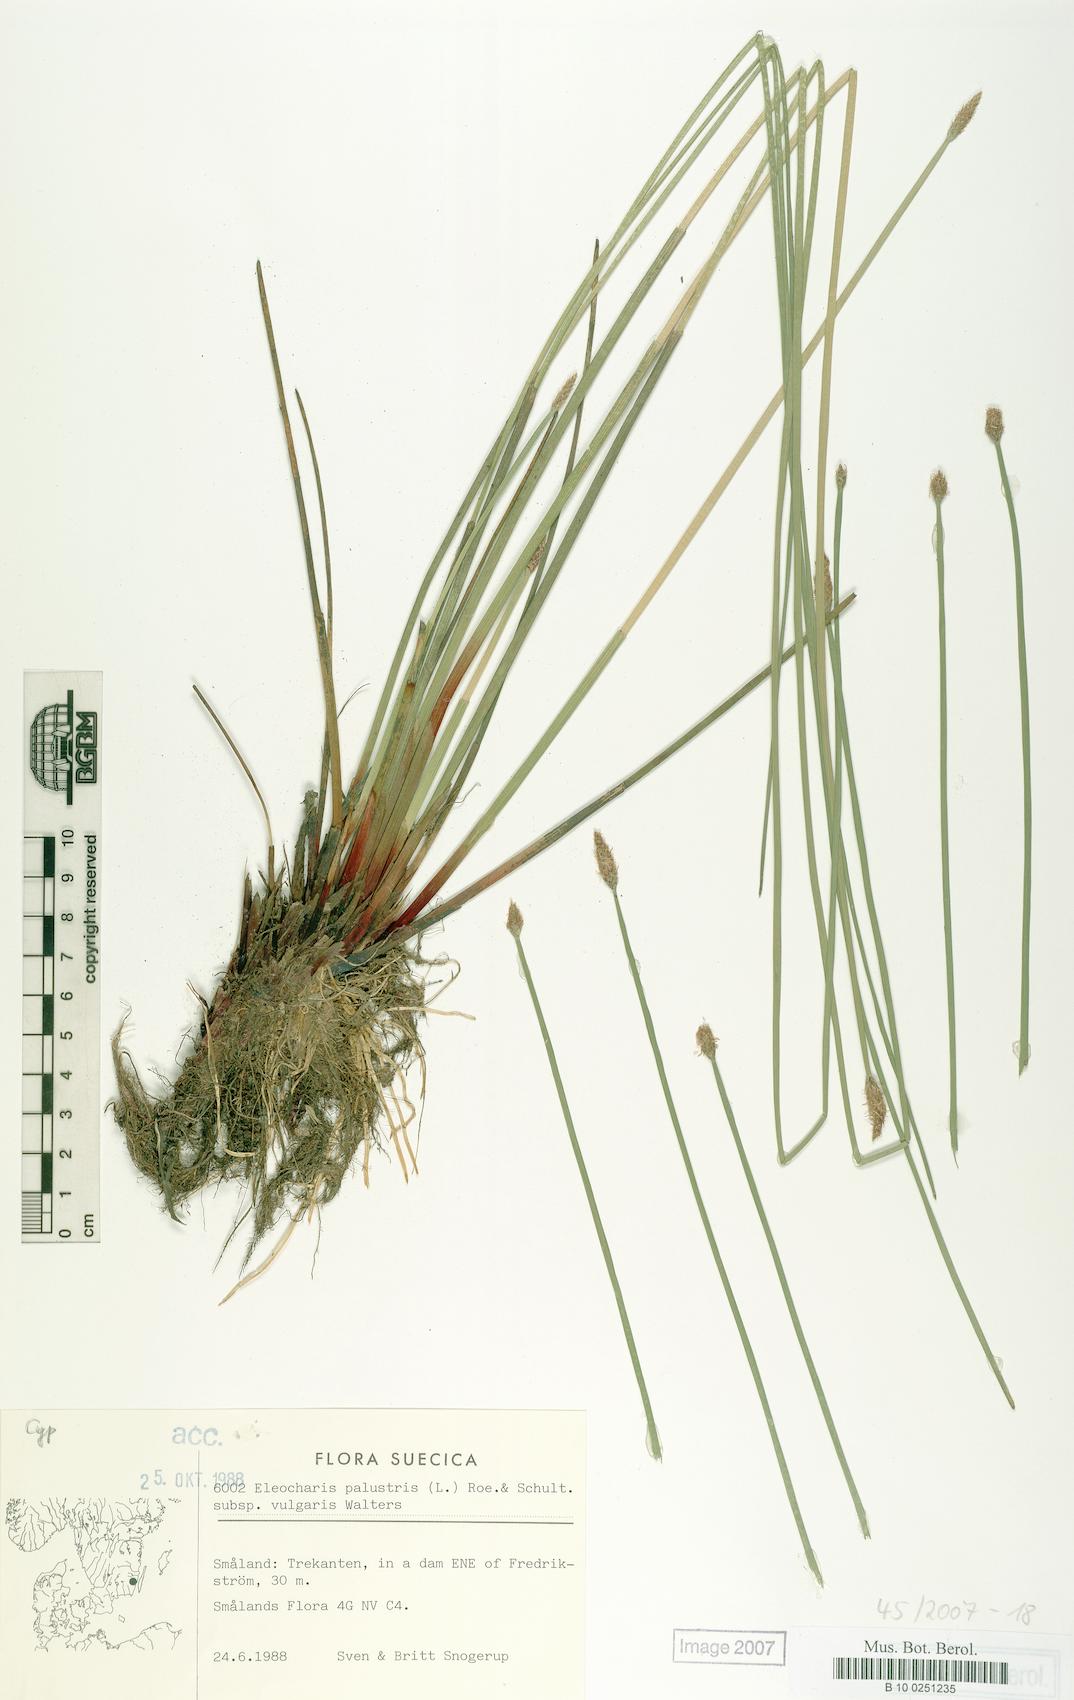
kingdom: Plantae
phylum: Tracheophyta
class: Liliopsida
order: Poales
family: Cyperaceae
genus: Eleocharis
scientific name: Eleocharis palustris
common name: Common spike-rush
